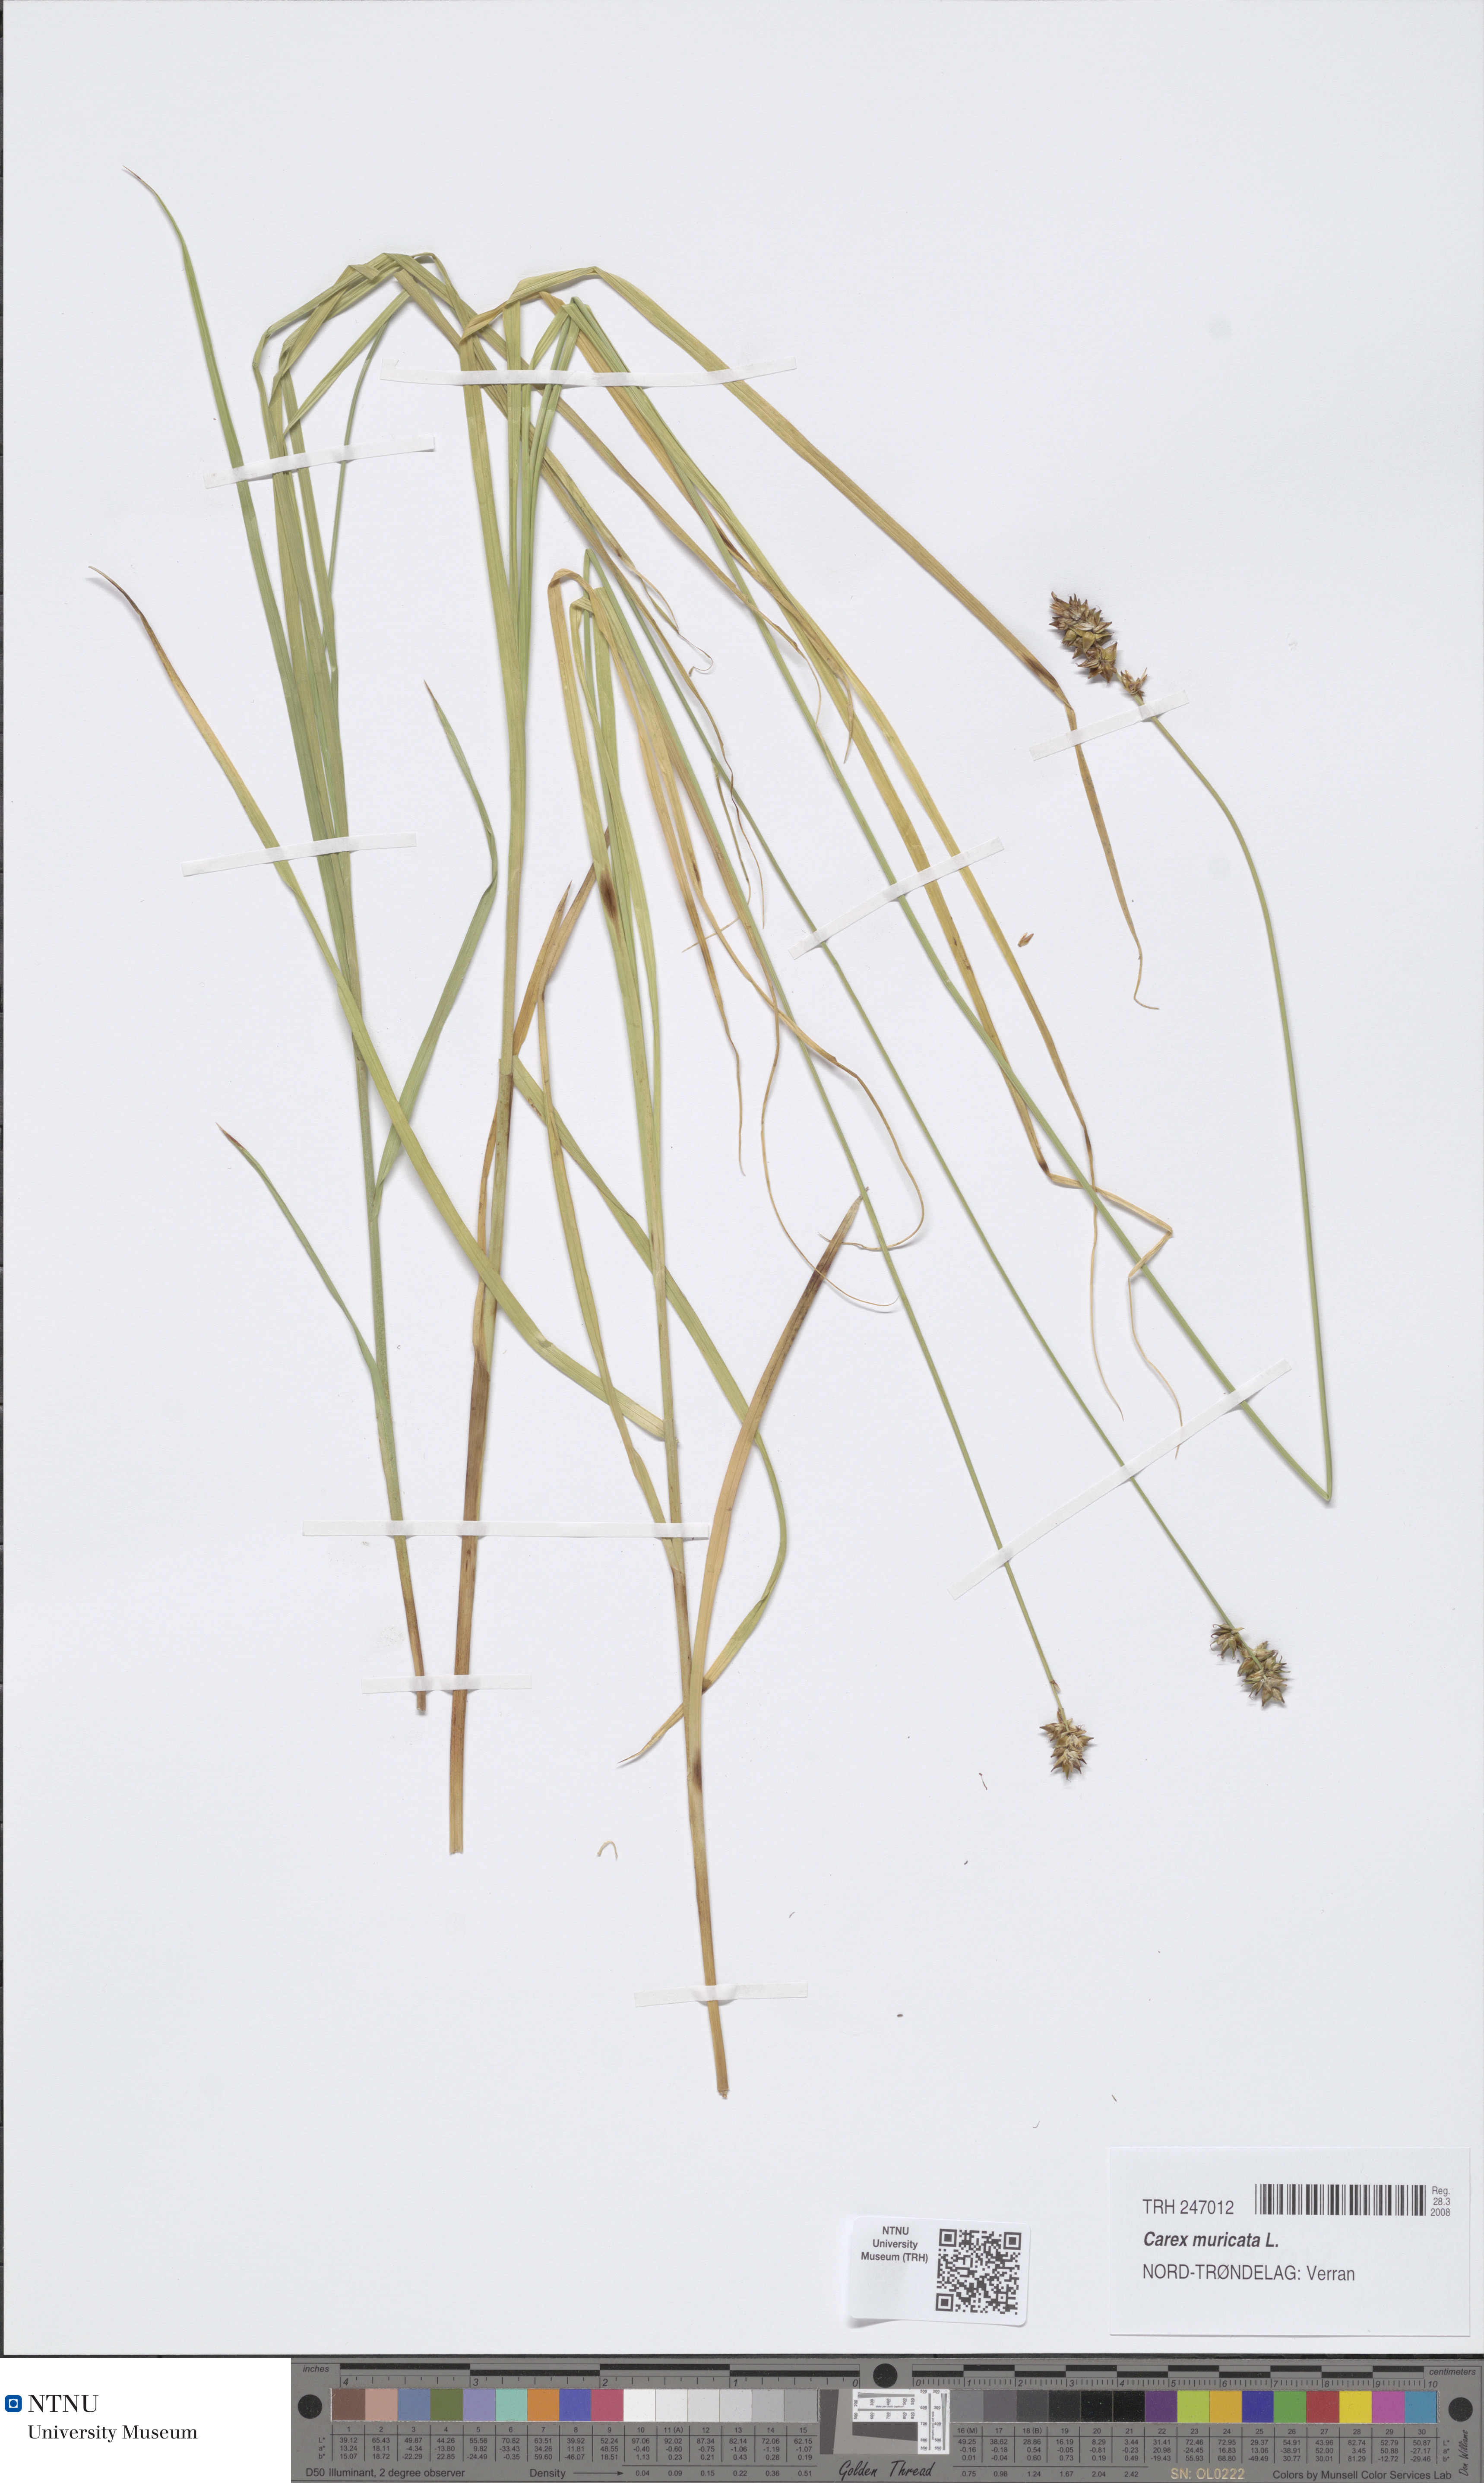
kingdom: Plantae
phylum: Tracheophyta
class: Liliopsida
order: Poales
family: Cyperaceae
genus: Carex
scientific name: Carex muricata
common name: Rough sedge
